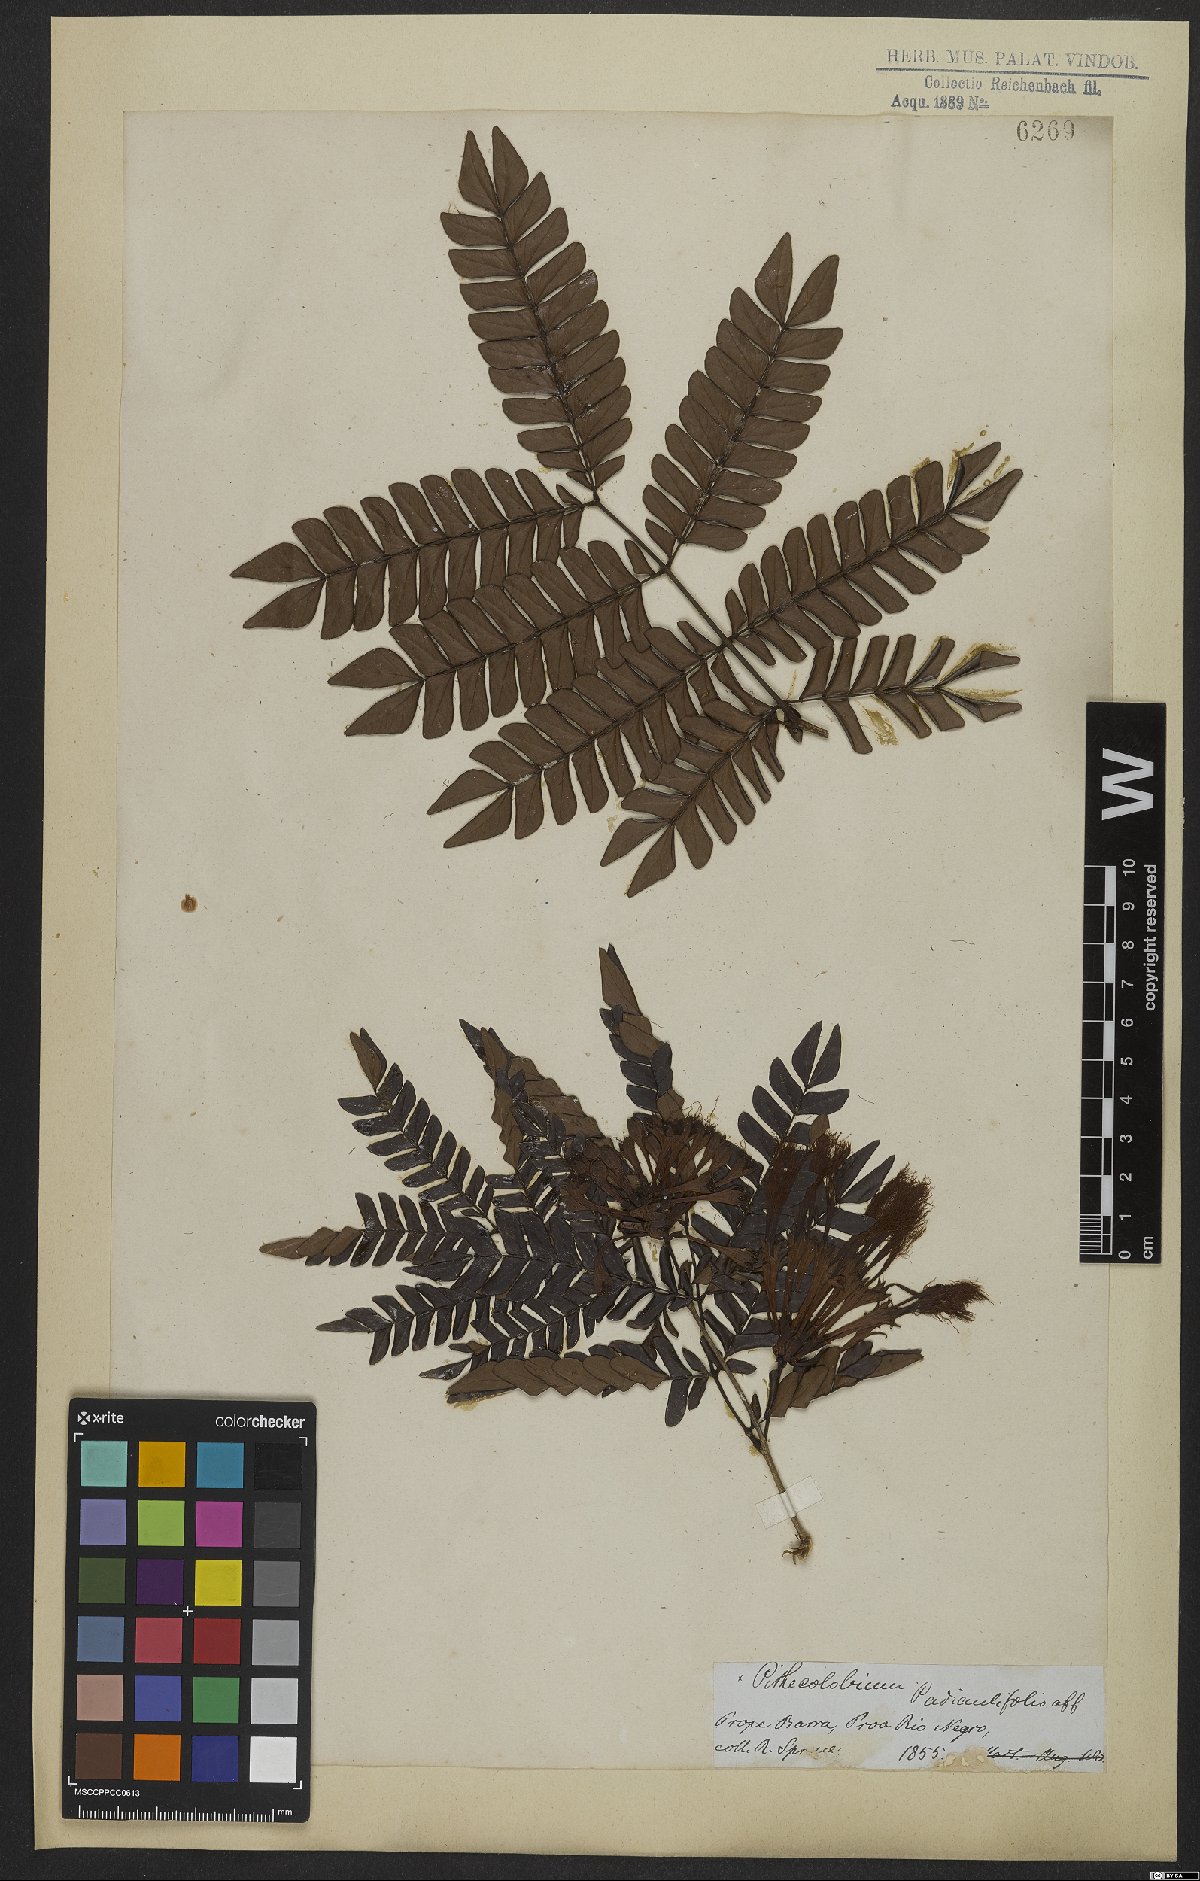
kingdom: Plantae
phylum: Tracheophyta
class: Magnoliopsida
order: Fabales
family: Fabaceae
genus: Macrosamanea
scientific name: Macrosamanea discolor
